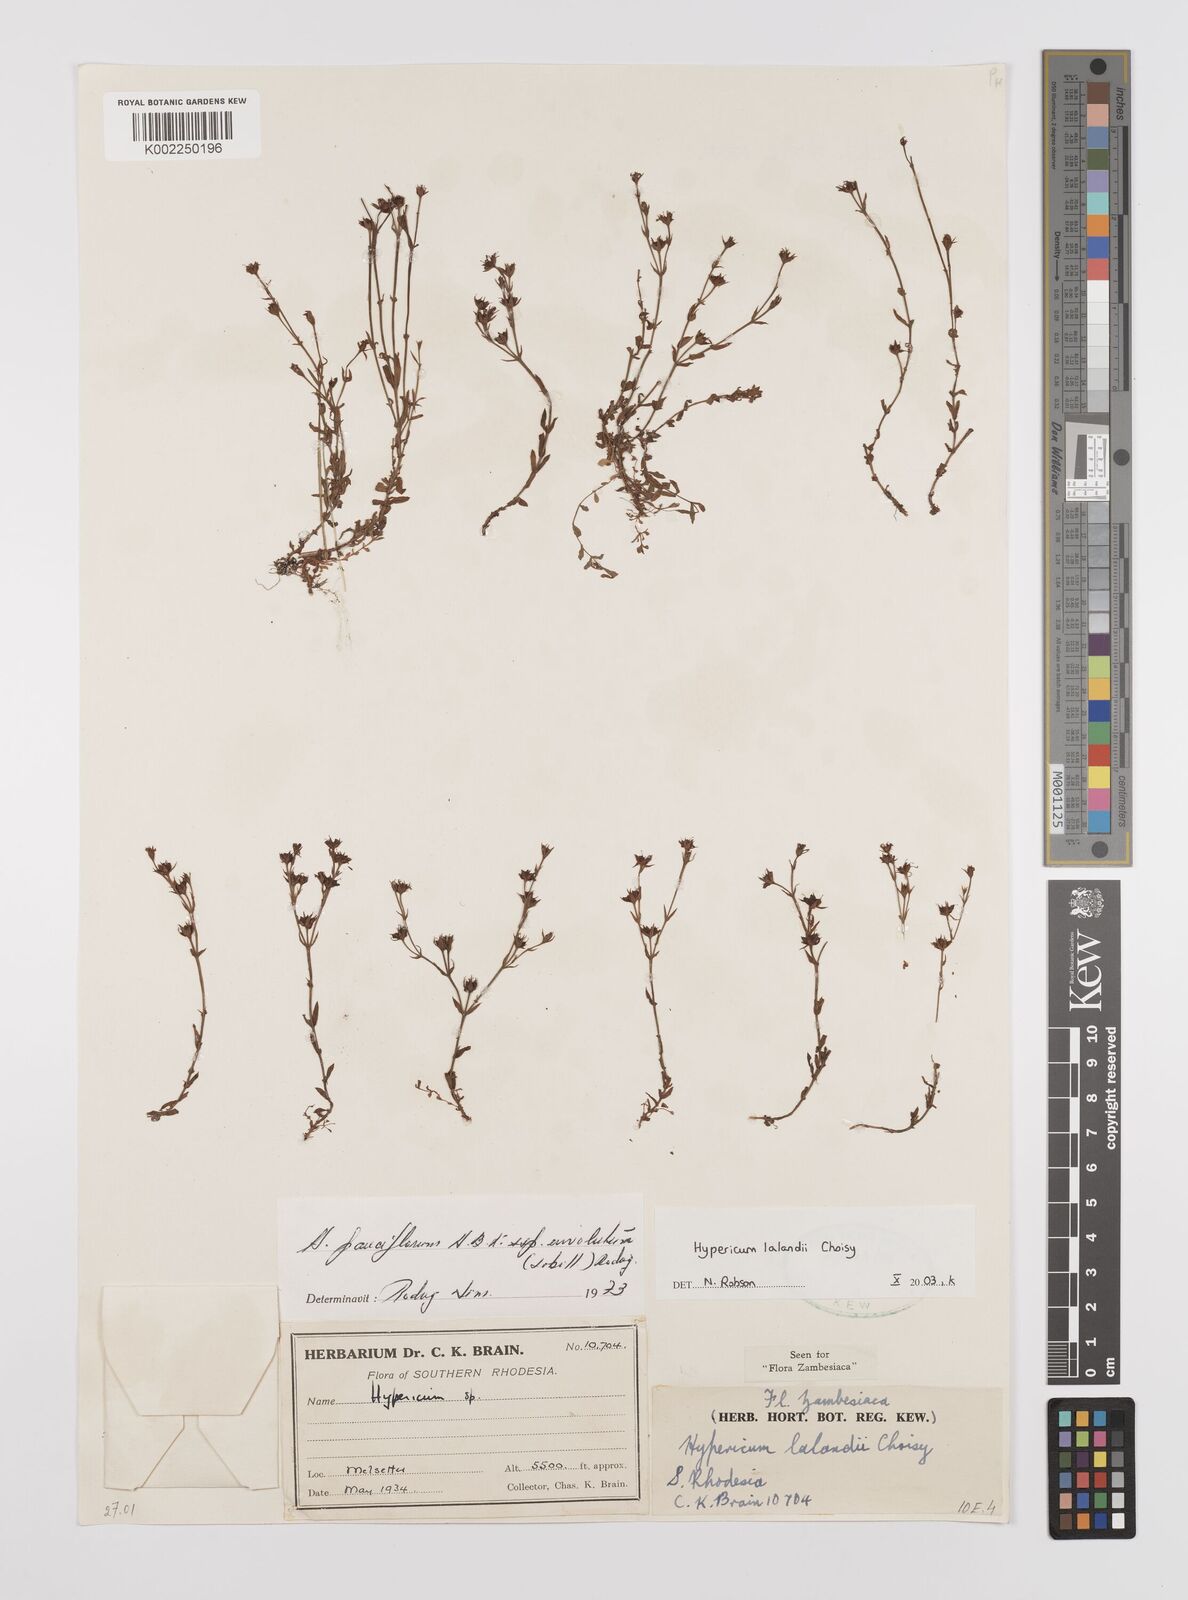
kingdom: Plantae
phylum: Tracheophyta
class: Magnoliopsida
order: Malpighiales
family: Hypericaceae
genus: Hypericum
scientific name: Hypericum lalandii
